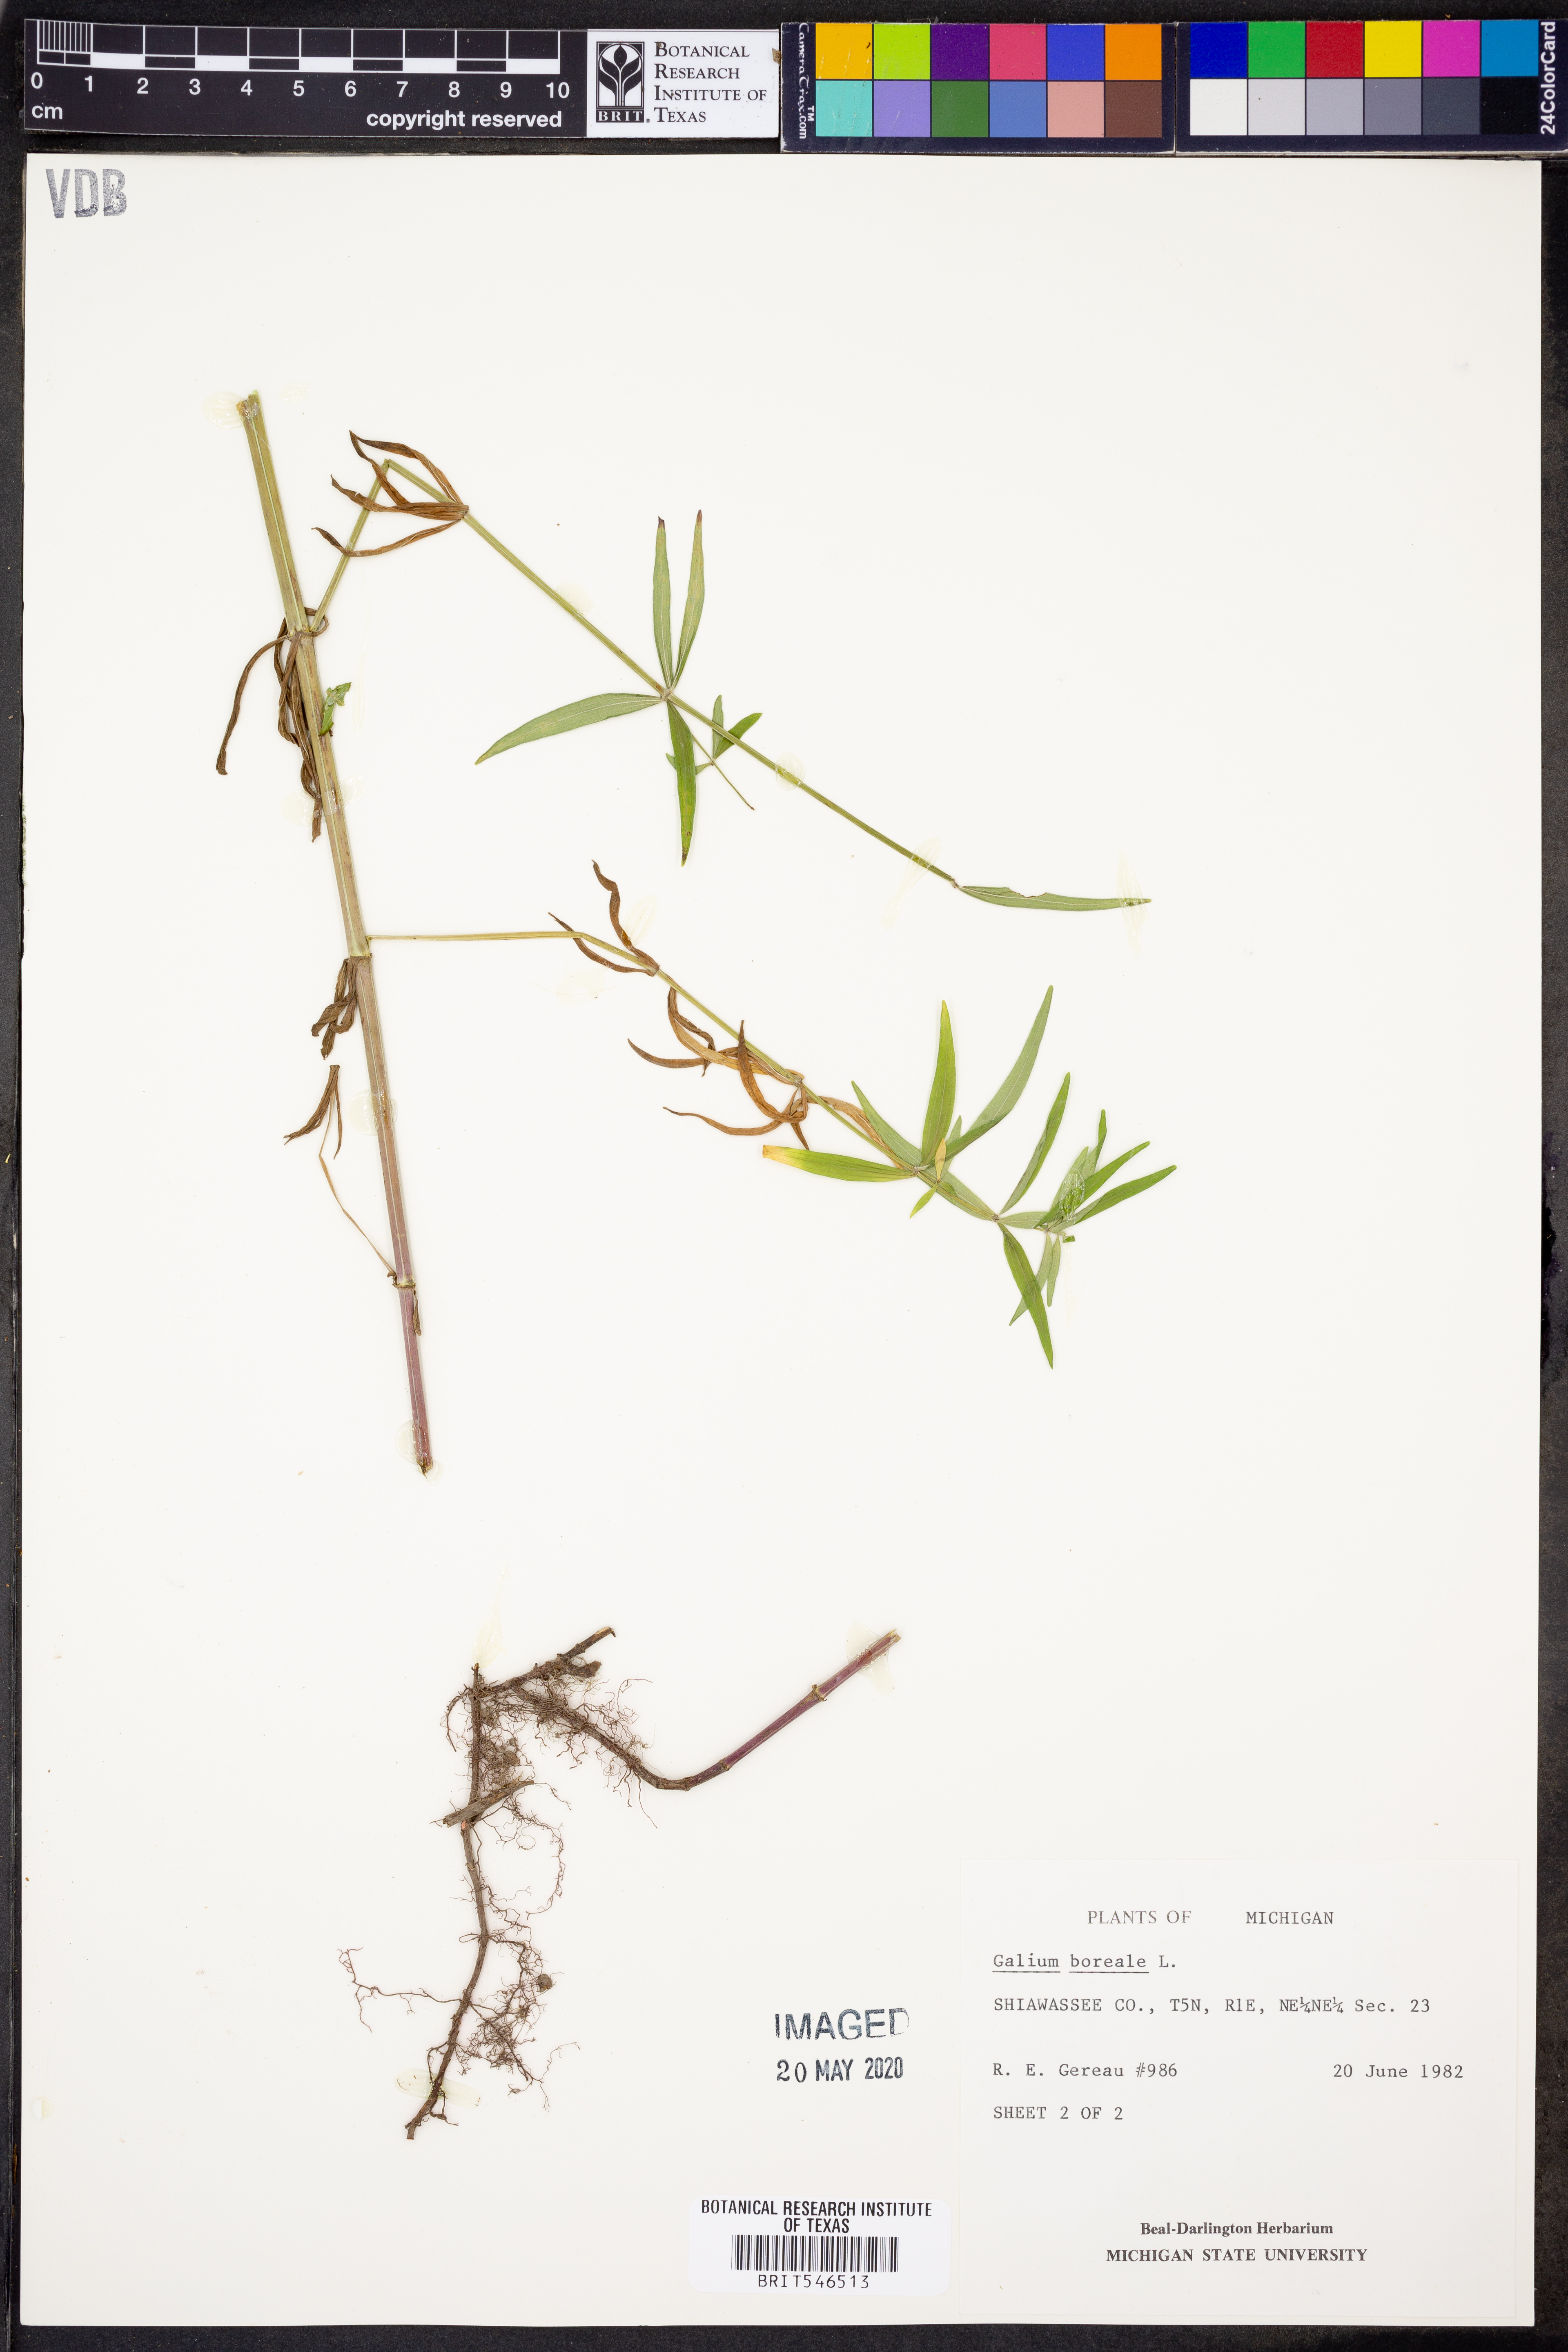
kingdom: Plantae
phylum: Tracheophyta
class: Magnoliopsida
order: Gentianales
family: Rubiaceae
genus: Galium
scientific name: Galium boreale
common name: Northern bedstraw
